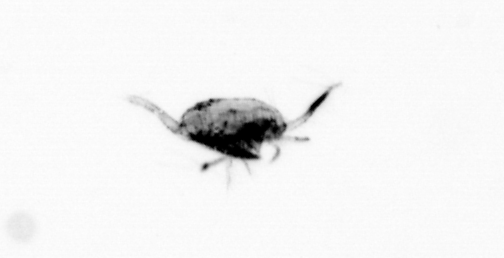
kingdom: Animalia
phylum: Arthropoda
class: Copepoda
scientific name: Copepoda
